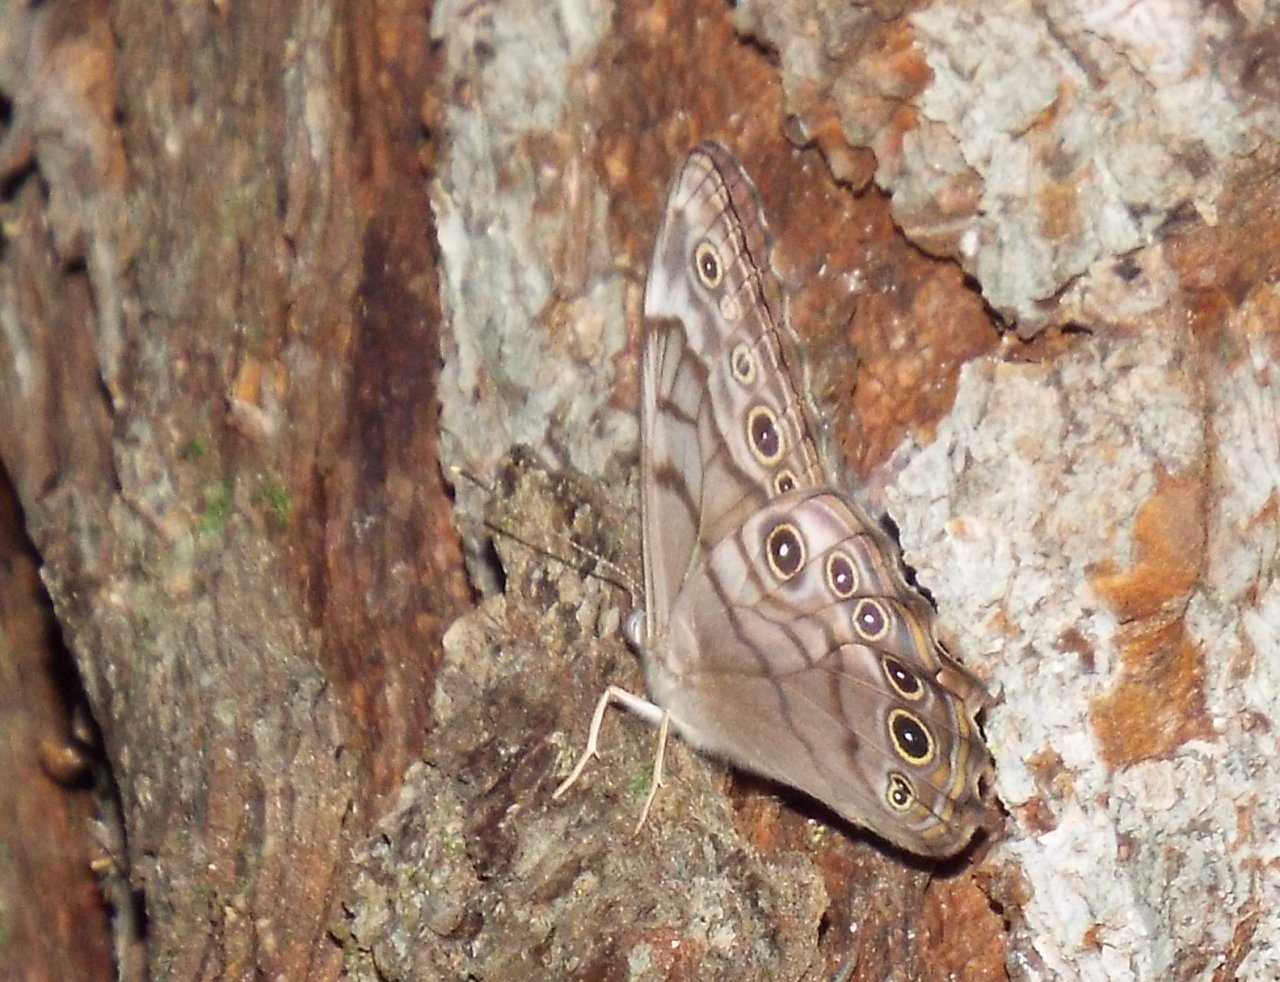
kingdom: Animalia
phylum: Arthropoda
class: Insecta
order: Lepidoptera
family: Nymphalidae
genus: Lethe
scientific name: Lethe creola
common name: Creole Pearly-Eye
